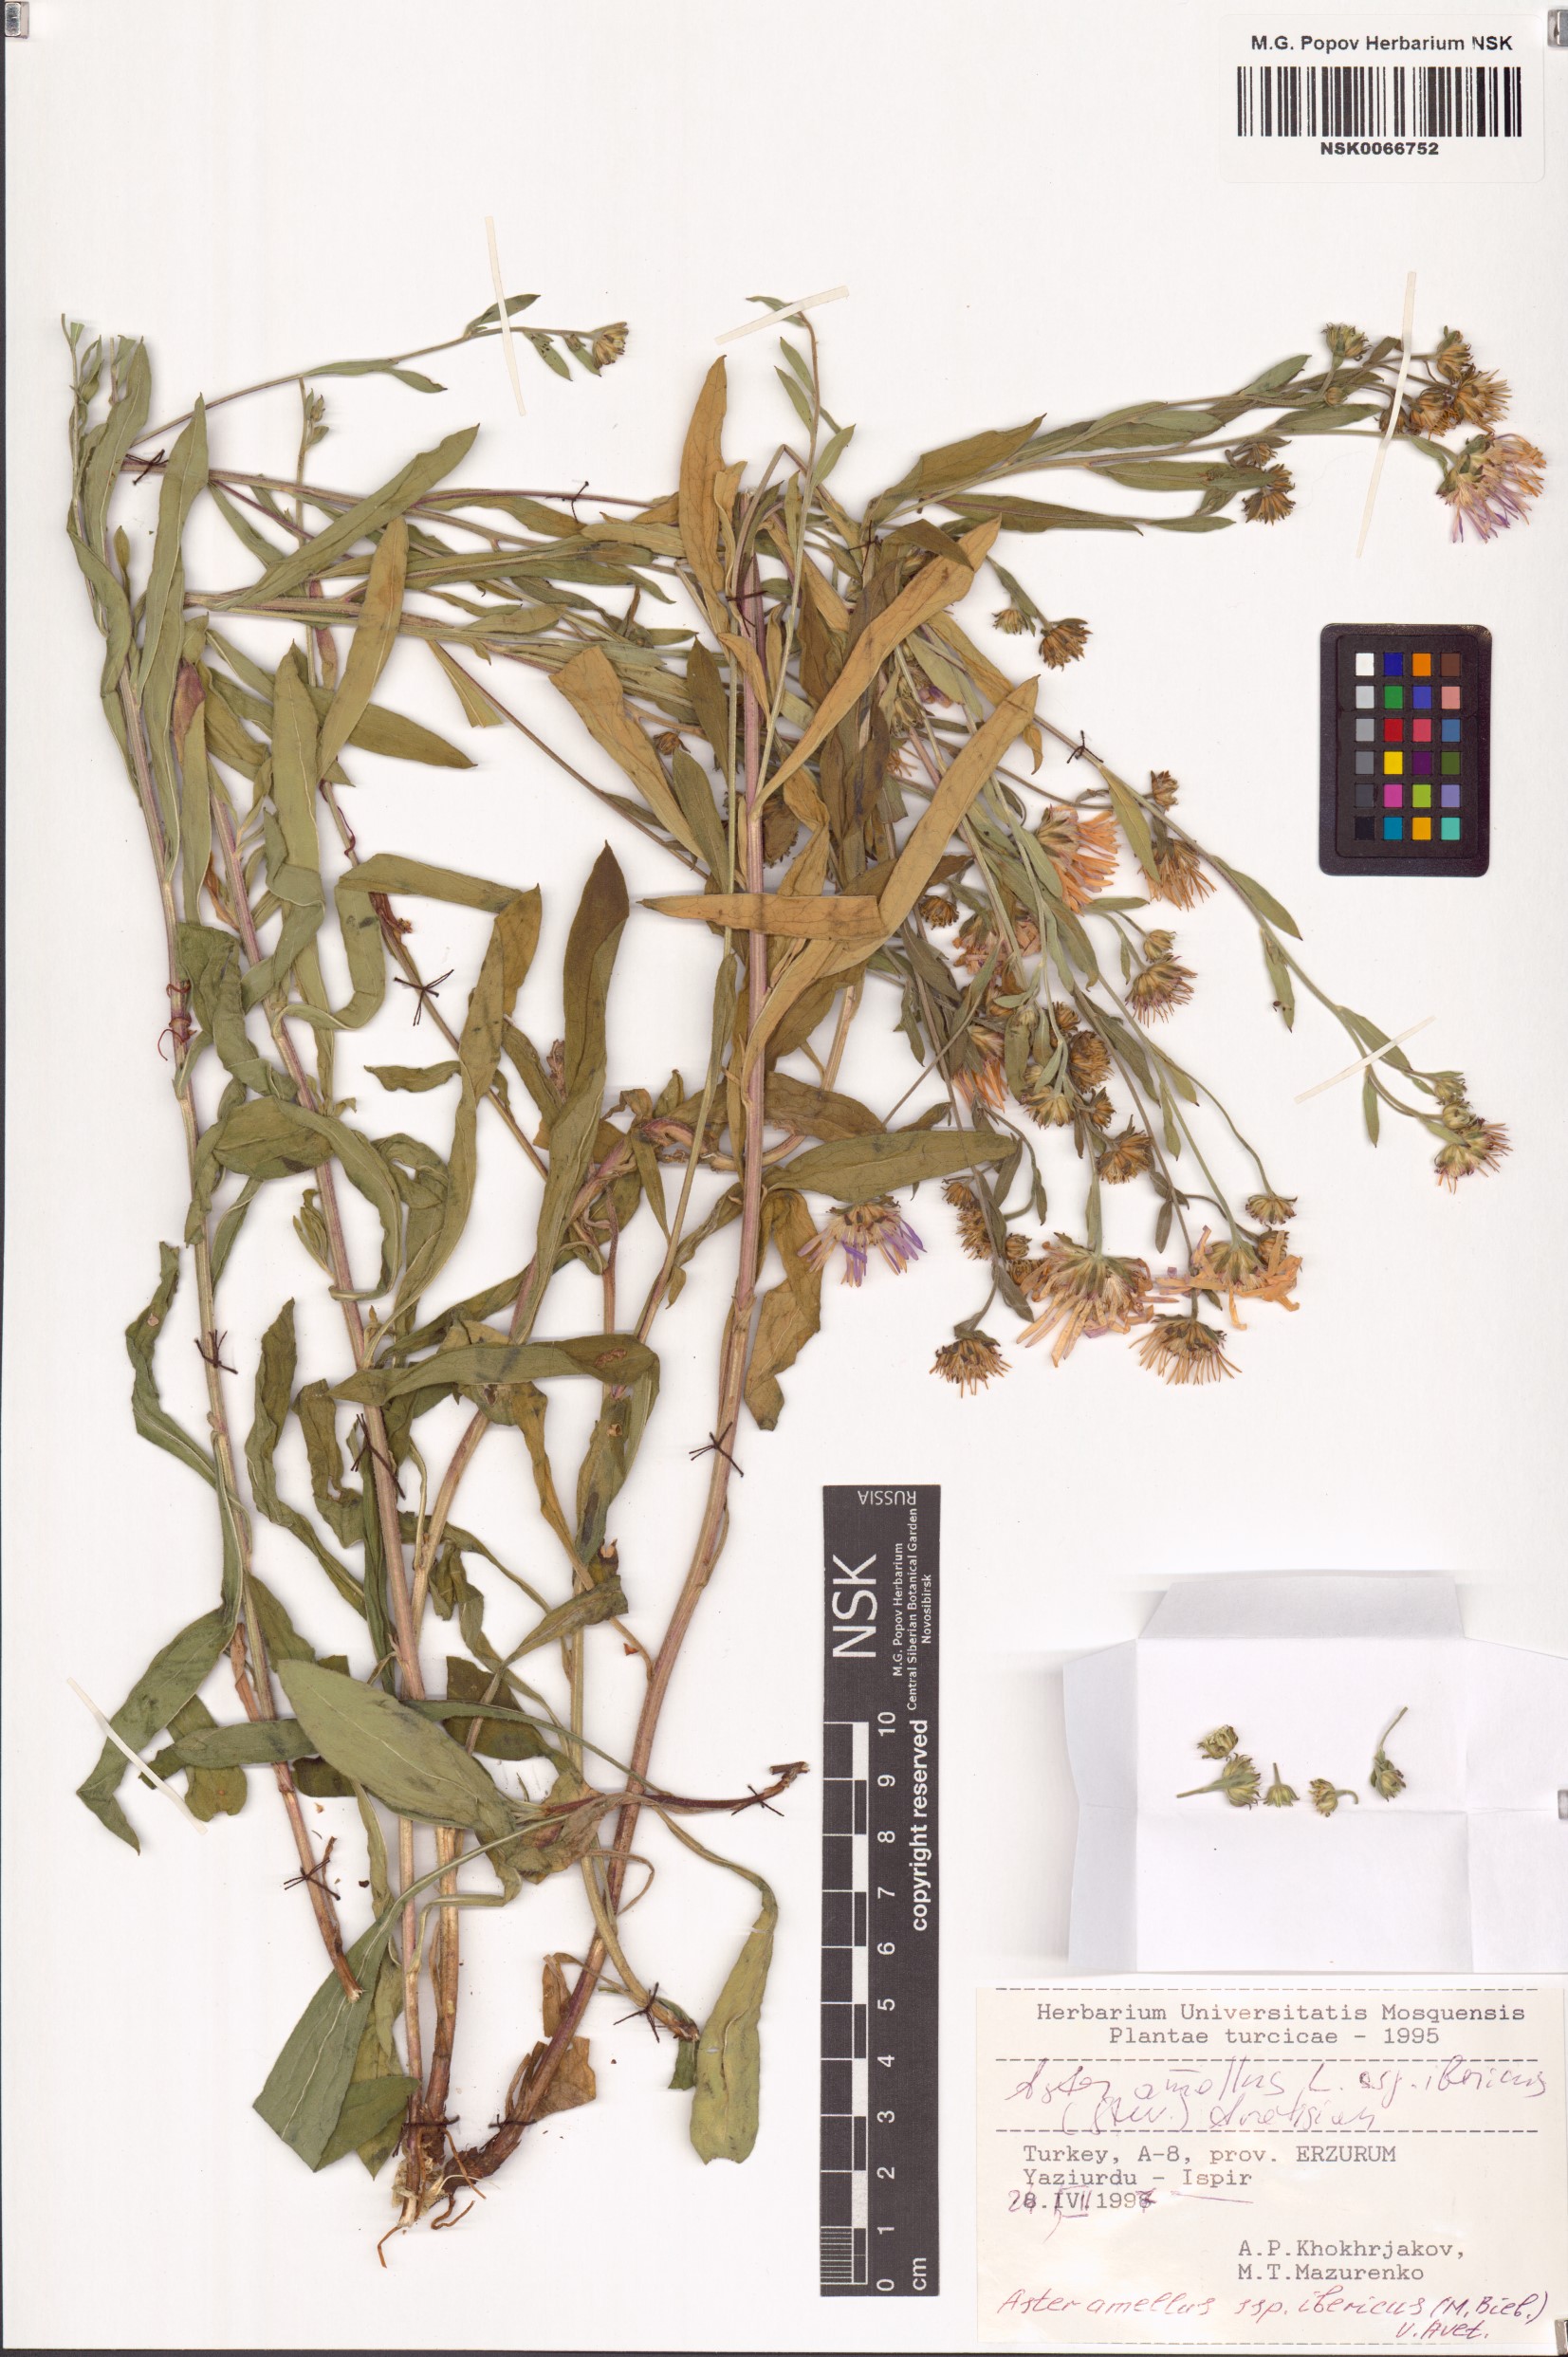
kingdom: Plantae
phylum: Tracheophyta
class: Magnoliopsida
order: Asterales
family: Asteraceae
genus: Aster
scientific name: Aster amellus
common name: European michaelmas daisy
